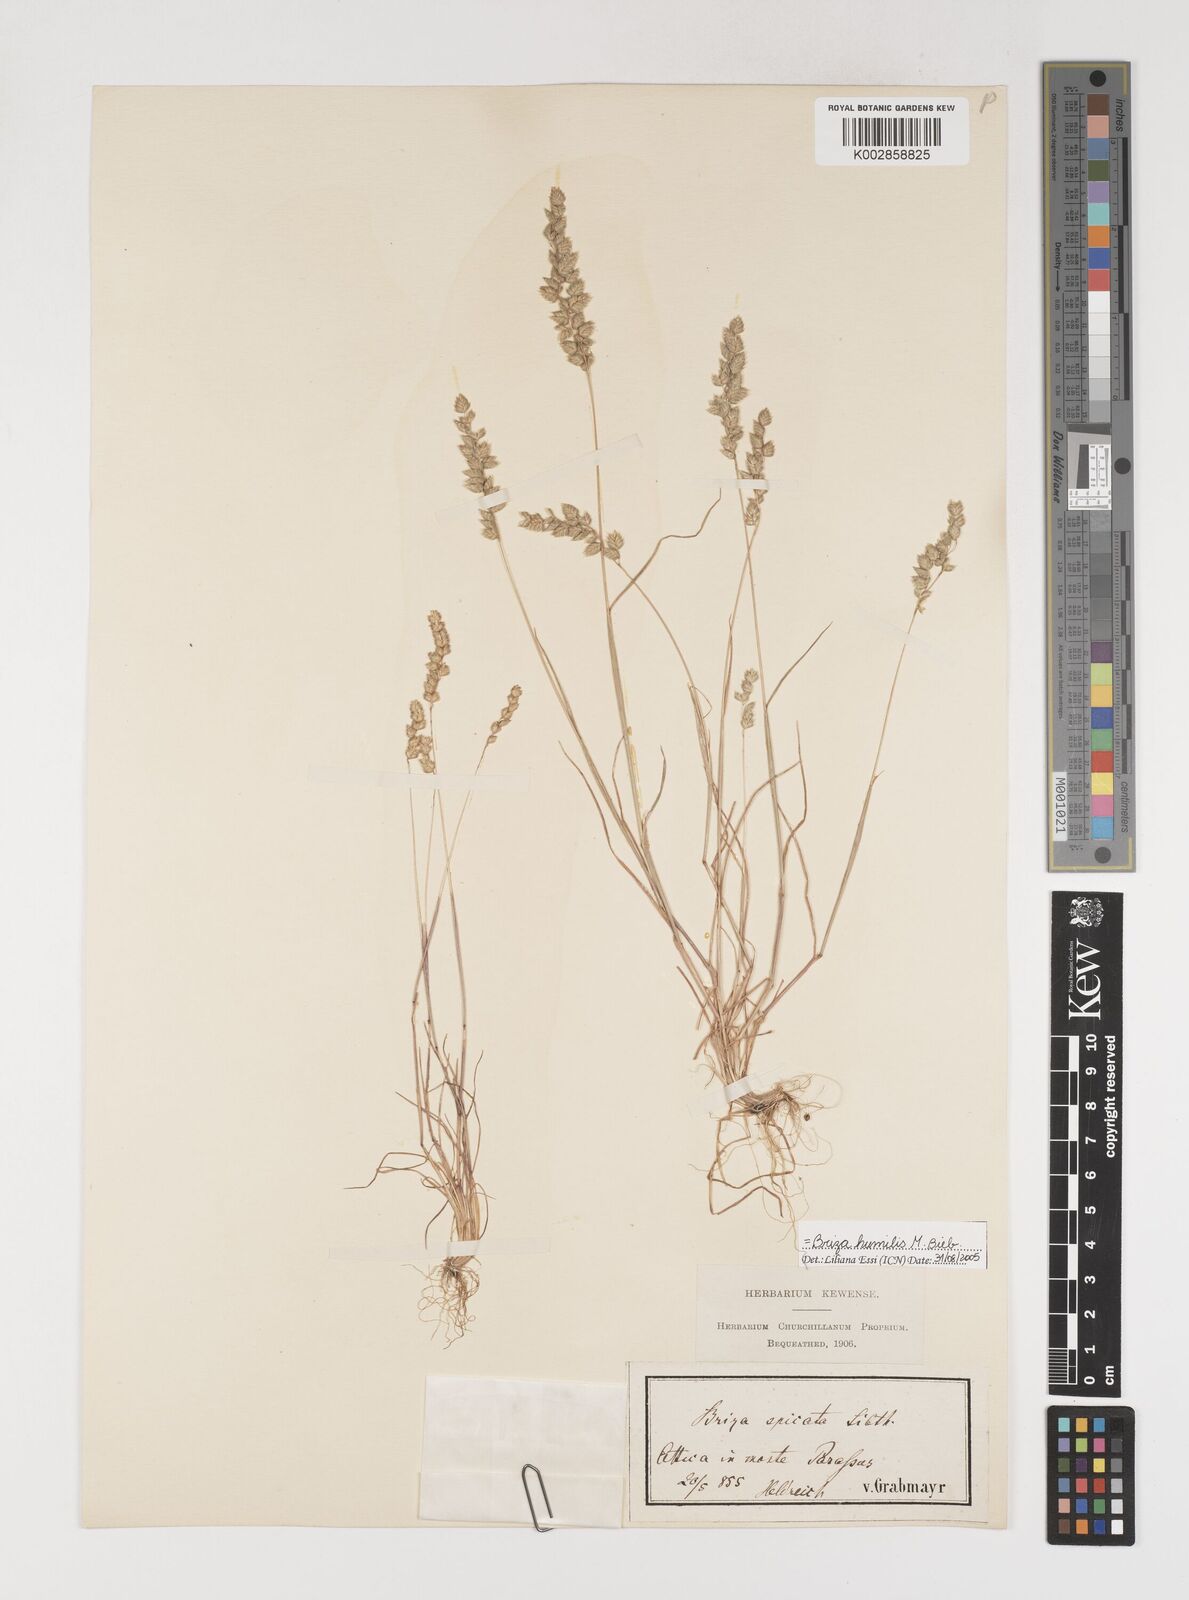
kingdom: Plantae
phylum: Tracheophyta
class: Liliopsida
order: Poales
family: Poaceae
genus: Briza
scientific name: Briza humilis
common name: Spiked quaking grass
